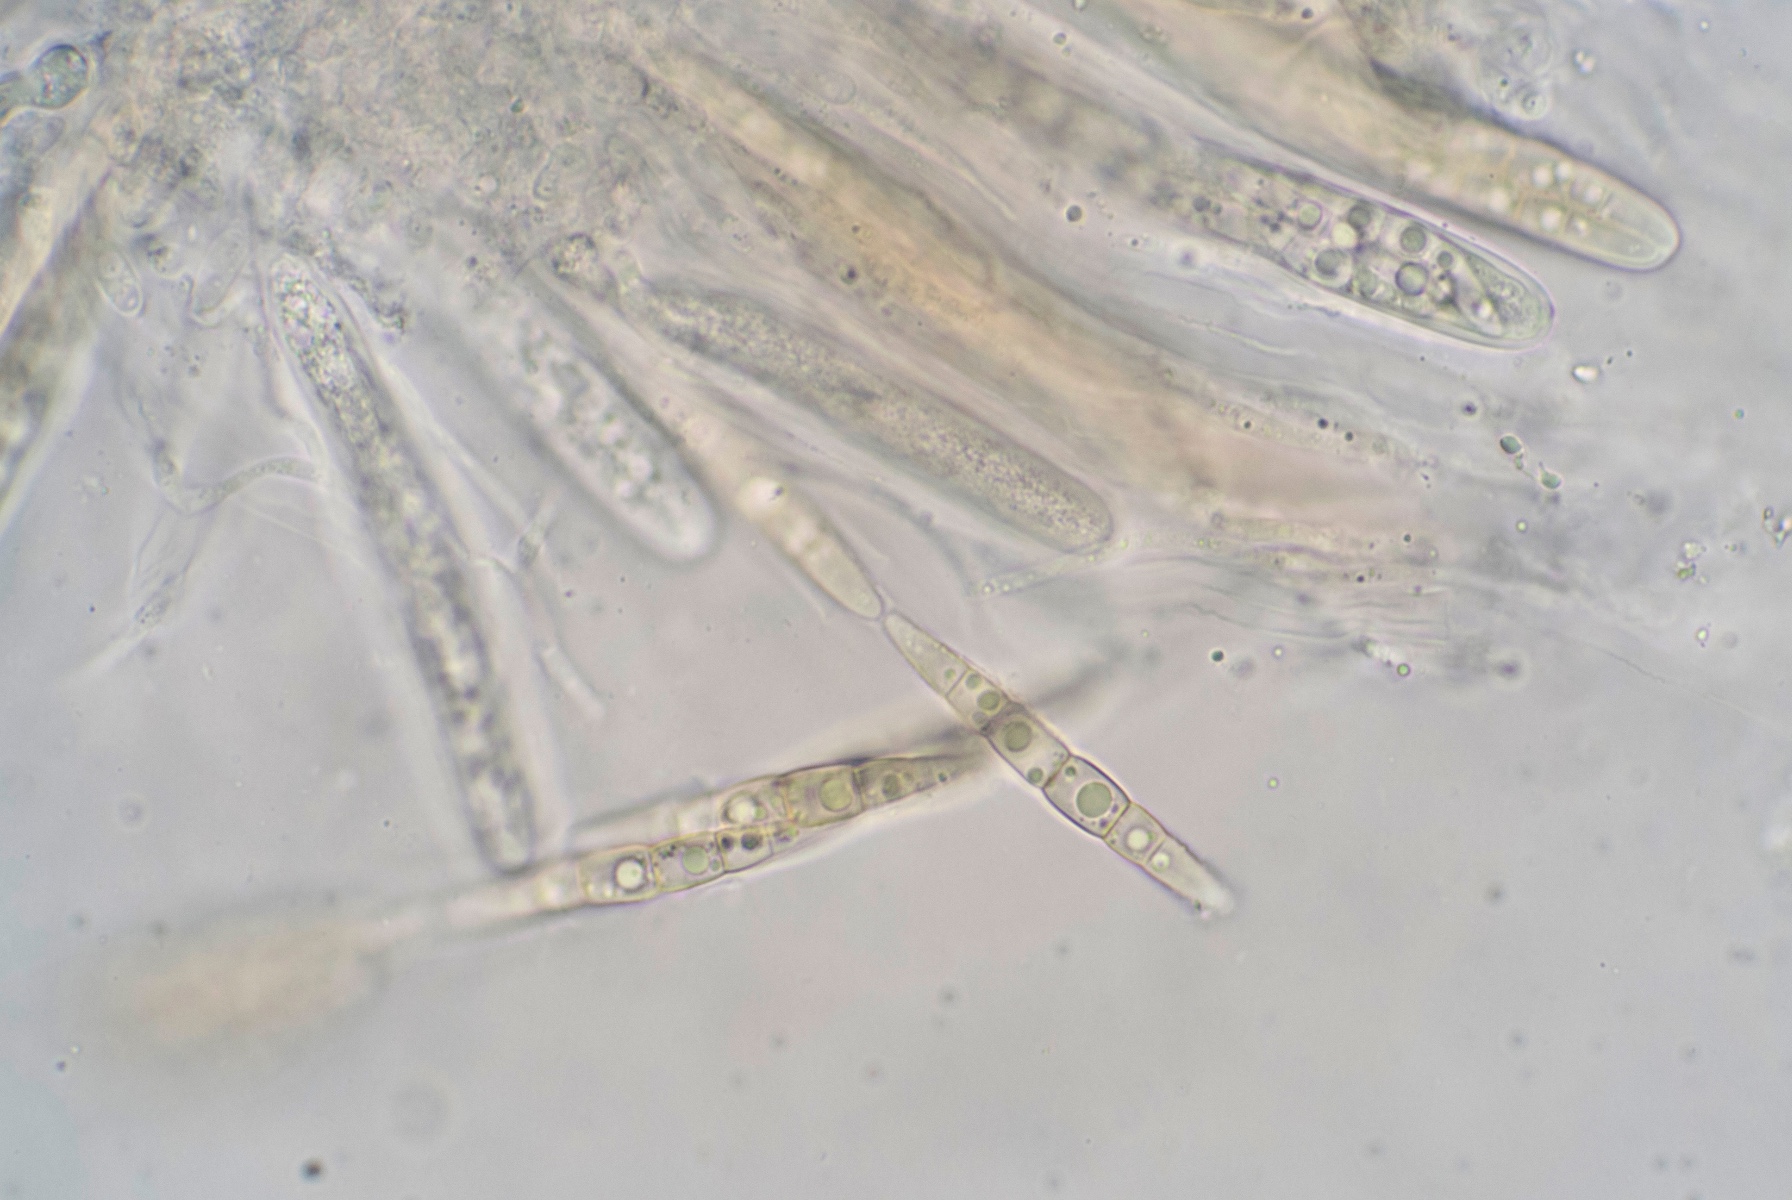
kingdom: Fungi
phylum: Ascomycota
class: Dothideomycetes
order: Pleosporales
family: Phaeosphaeriaceae
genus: Phaeosphaeria
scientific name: Phaeosphaeria sowerbyi
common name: kål-kulkegle
